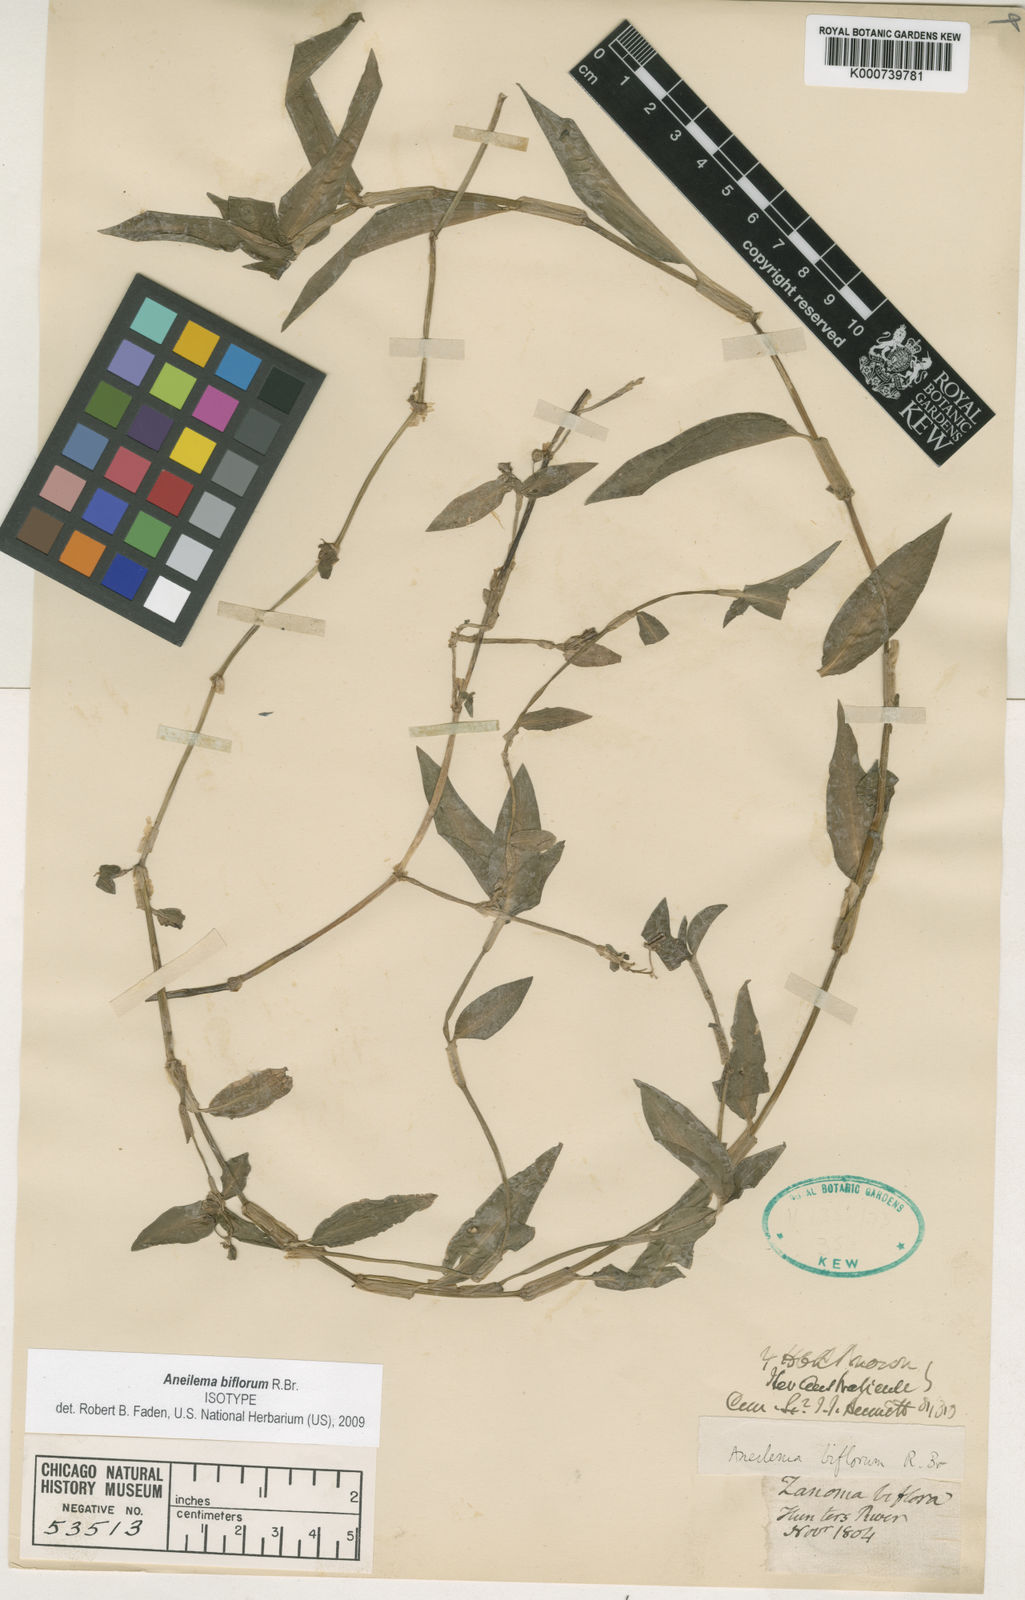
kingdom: Plantae
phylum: Tracheophyta
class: Liliopsida
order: Commelinales
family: Commelinaceae
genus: Aneilema
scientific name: Aneilema biflorum
